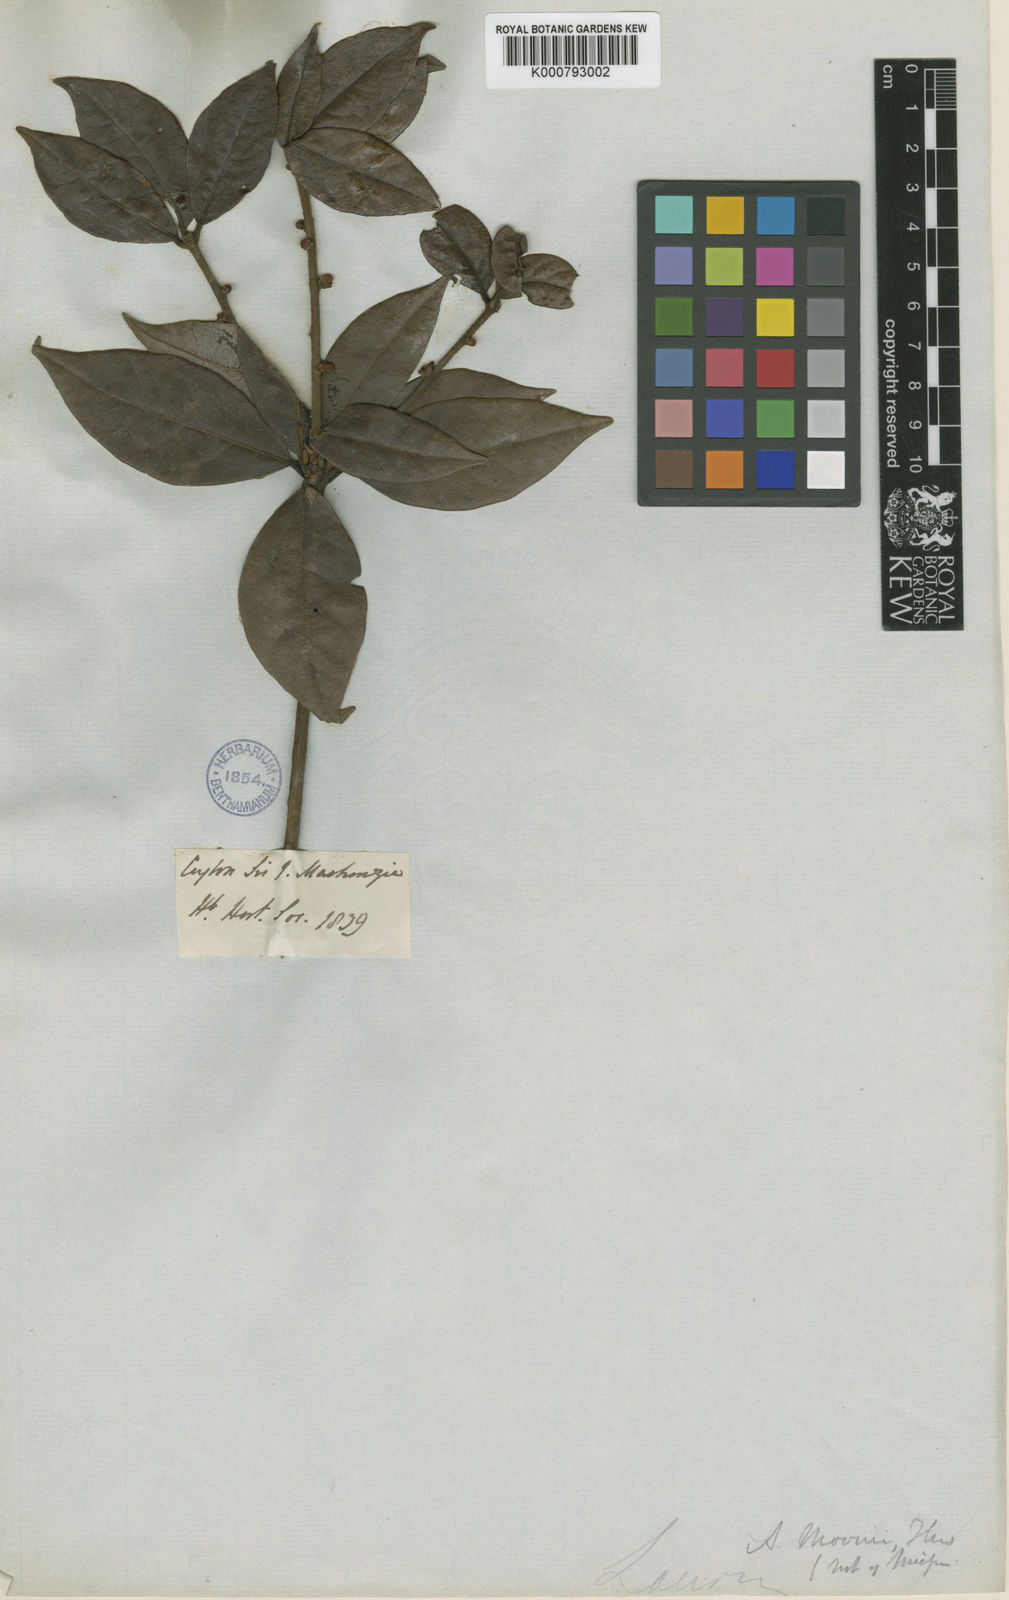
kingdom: Plantae
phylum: Tracheophyta
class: Magnoliopsida
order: Laurales
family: Lauraceae
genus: Actinodaphne
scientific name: Actinodaphne molochina
